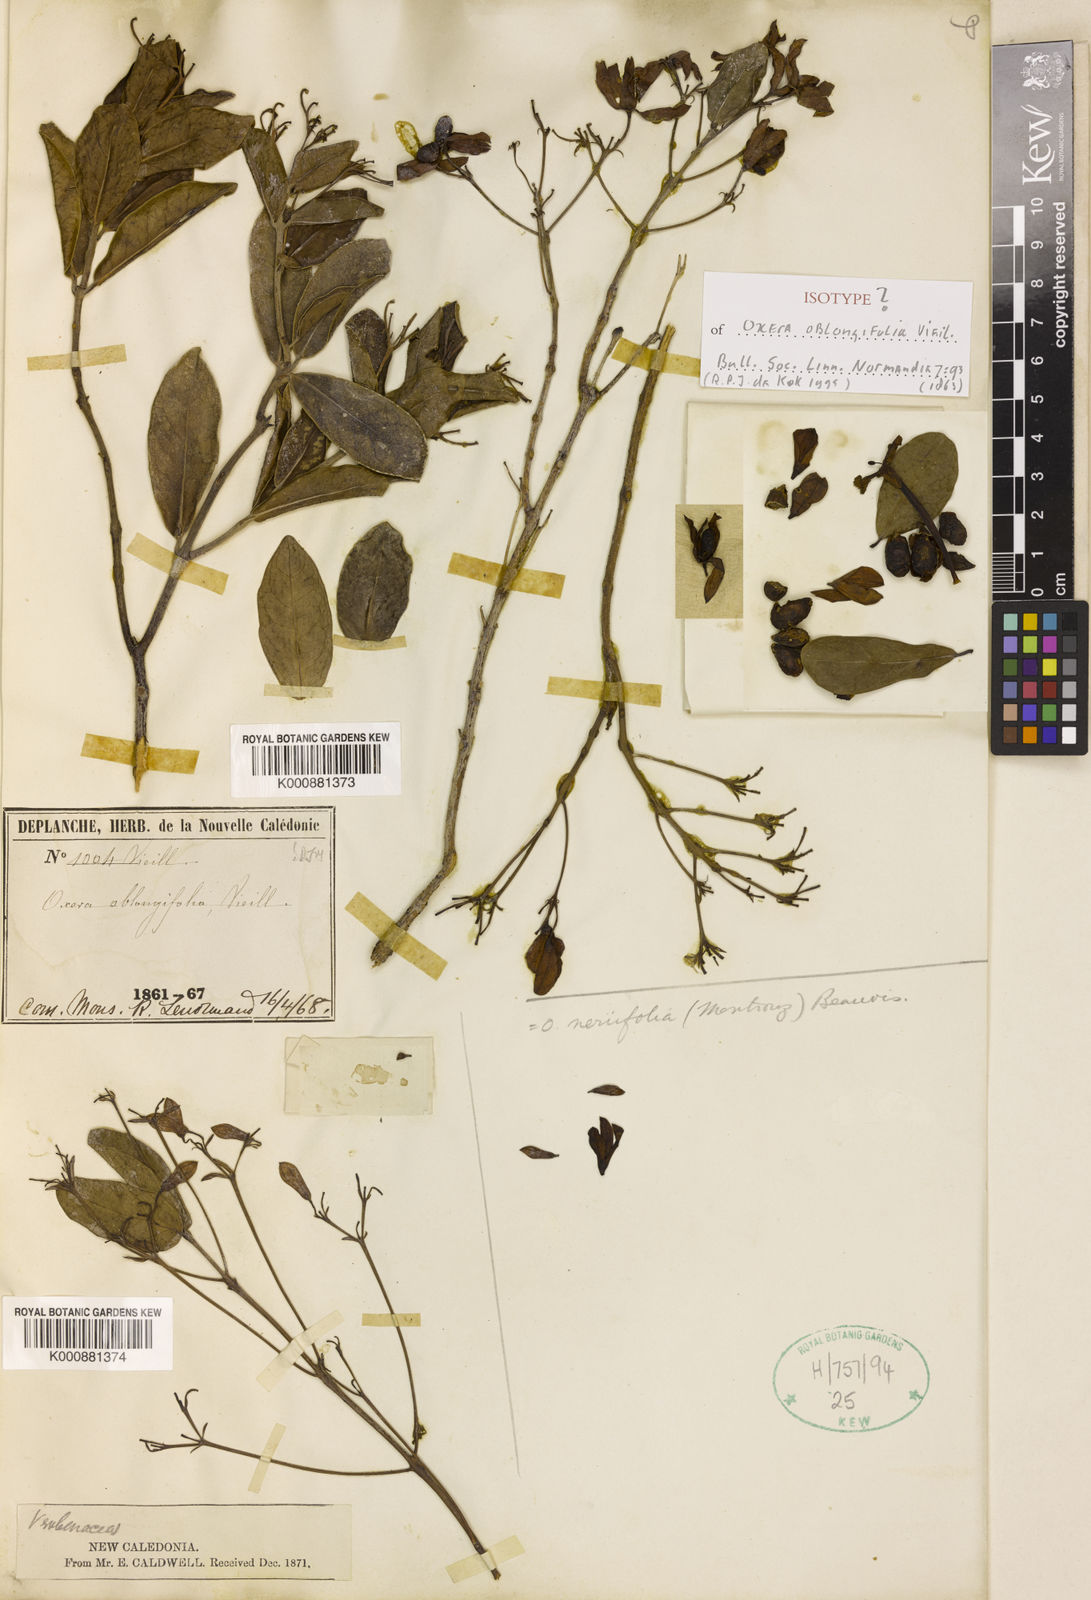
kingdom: Plantae
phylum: Tracheophyta
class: Magnoliopsida
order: Lamiales
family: Lamiaceae
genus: Oxera
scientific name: Oxera neriifolia
